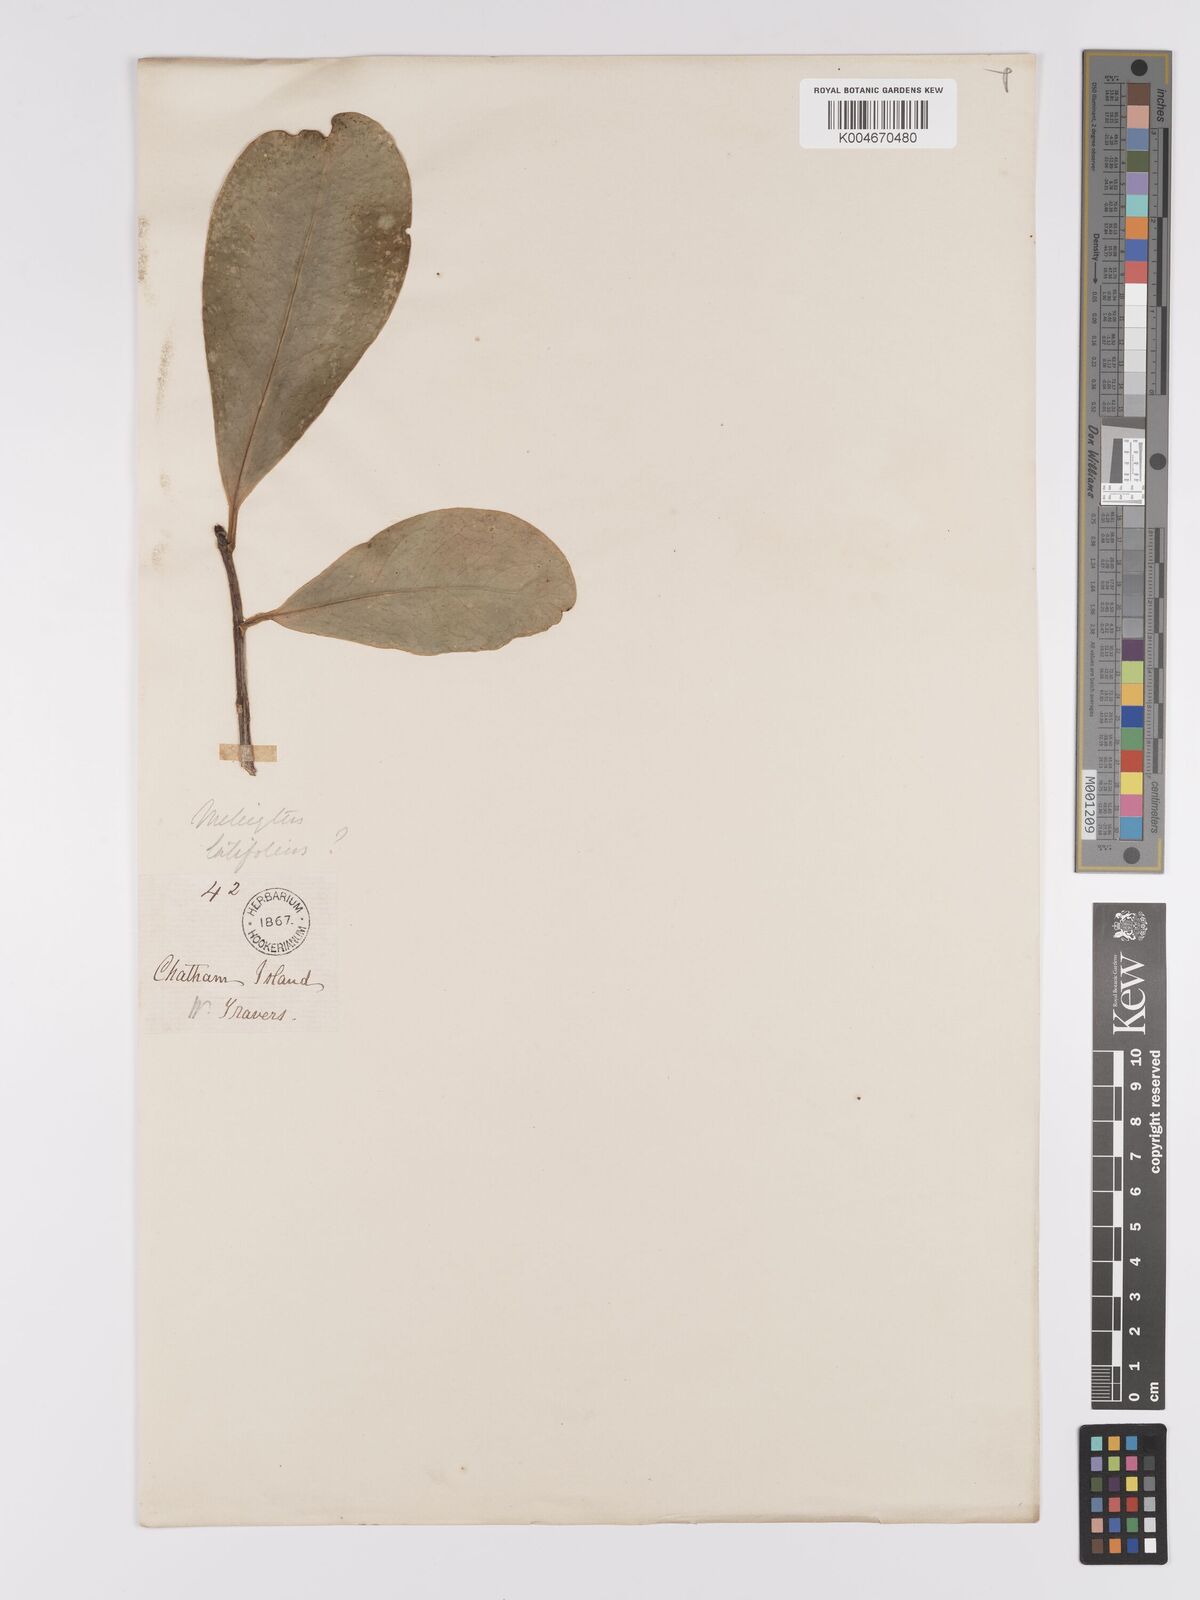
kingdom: Plantae
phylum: Tracheophyta
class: Magnoliopsida
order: Malpighiales
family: Violaceae
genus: Melicytus
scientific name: Melicytus
